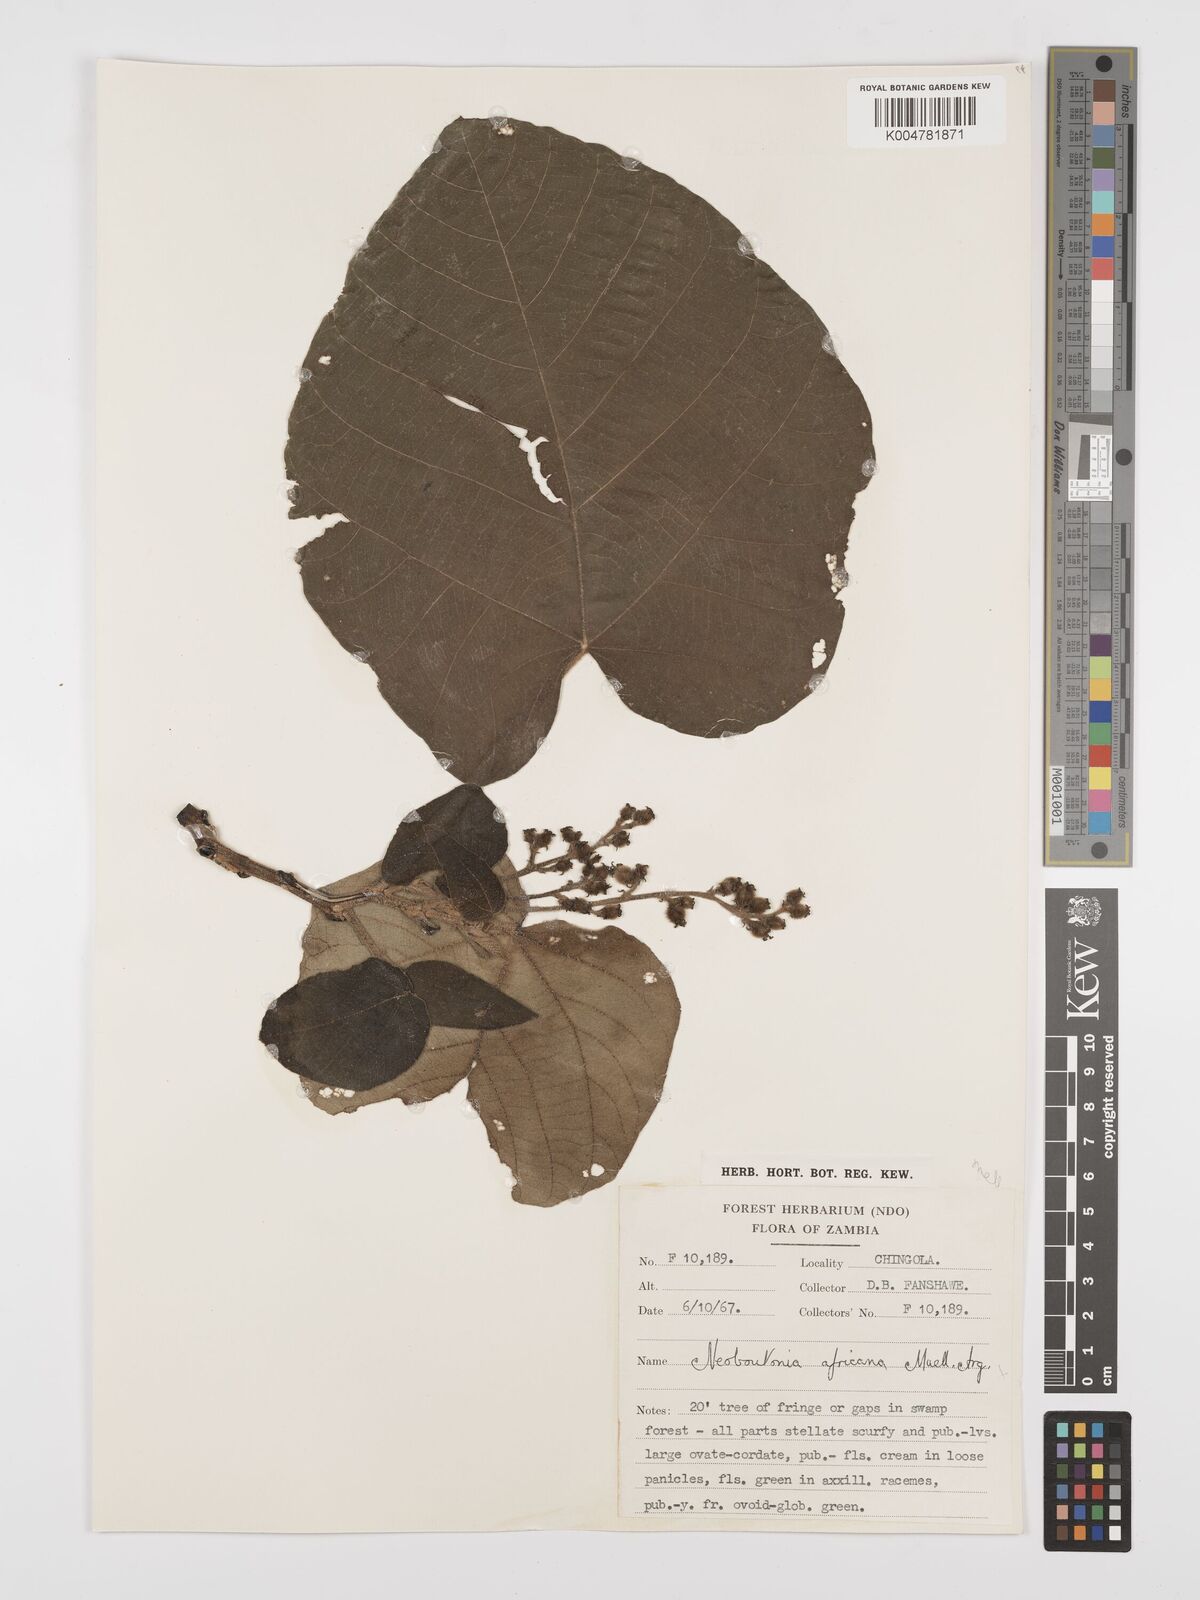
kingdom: Plantae
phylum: Tracheophyta
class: Magnoliopsida
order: Malpighiales
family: Euphorbiaceae
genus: Neoboutonia
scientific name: Neoboutonia melleri
